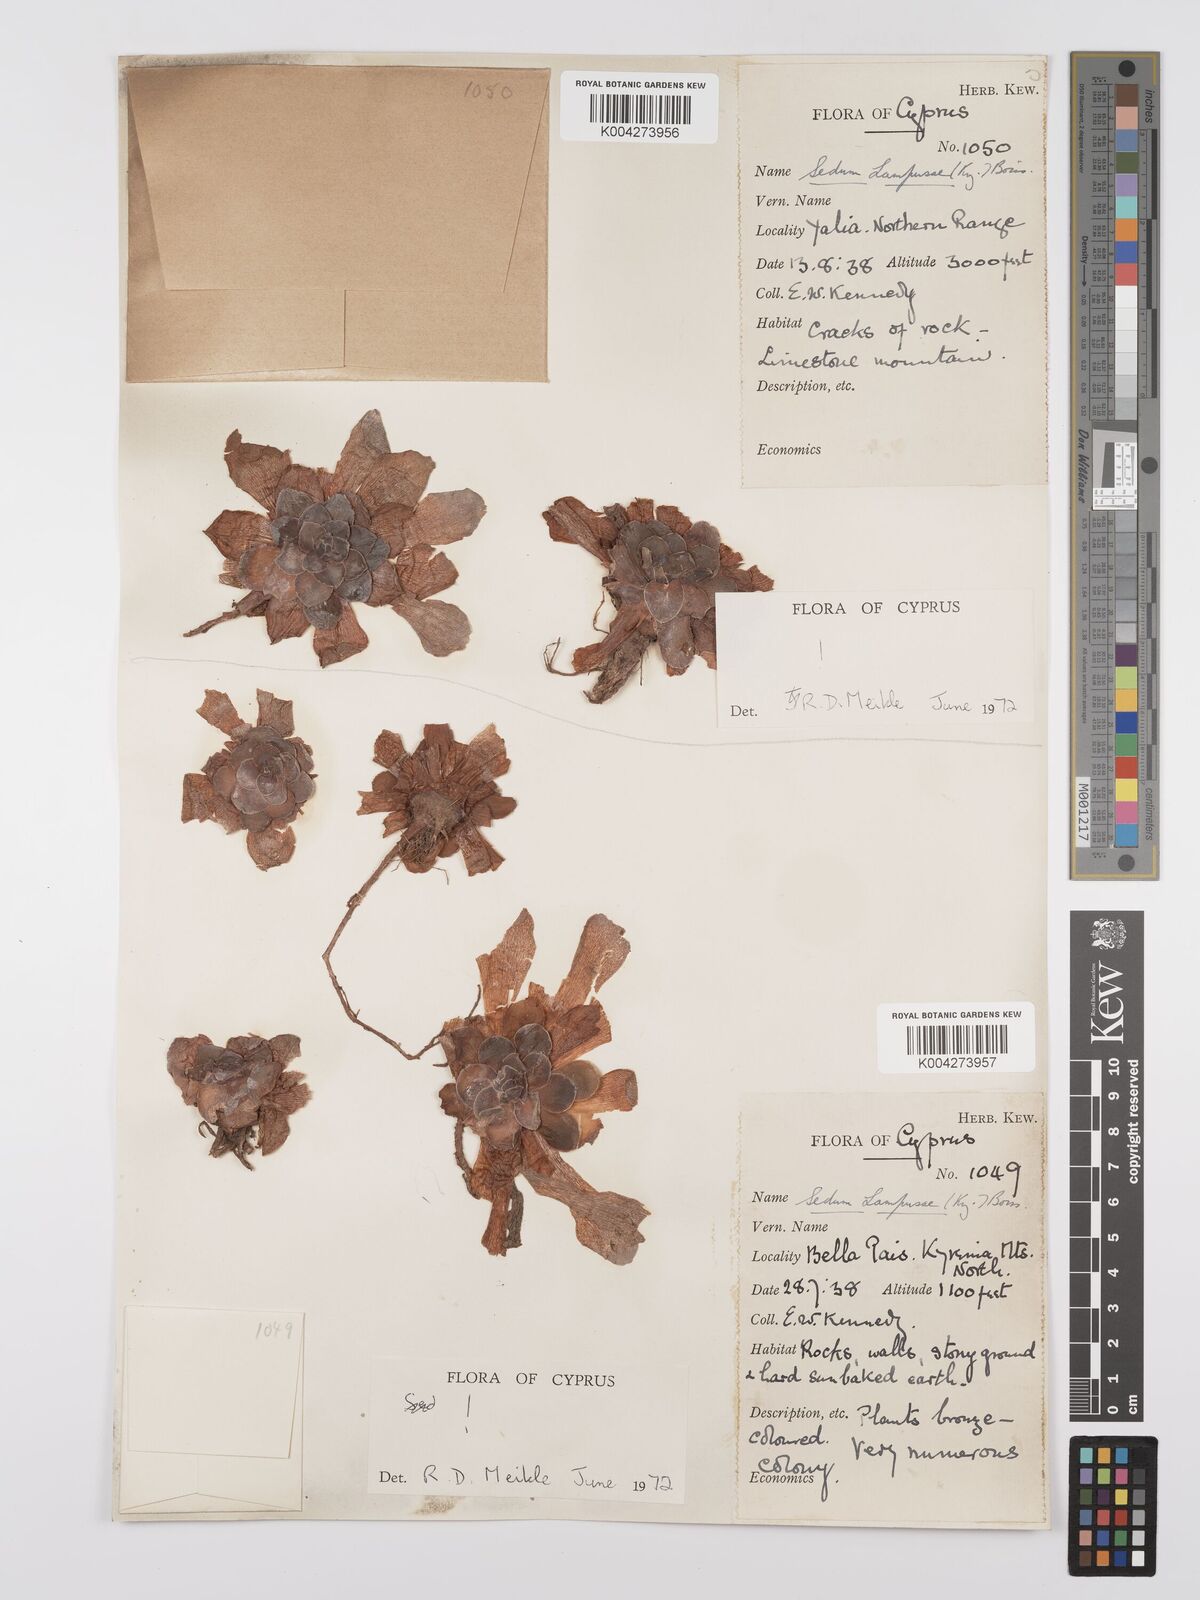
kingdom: Plantae
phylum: Tracheophyta
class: Magnoliopsida
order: Saxifragales
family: Crassulaceae
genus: Sedum
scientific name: Sedum lampusae
